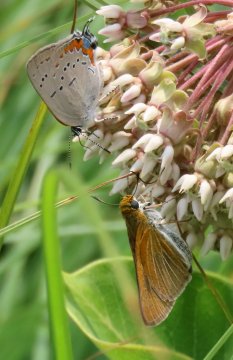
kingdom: Animalia
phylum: Arthropoda
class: Insecta
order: Lepidoptera
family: Lycaenidae
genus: Strymon
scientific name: Strymon acadica
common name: Acadian Hairstreak
